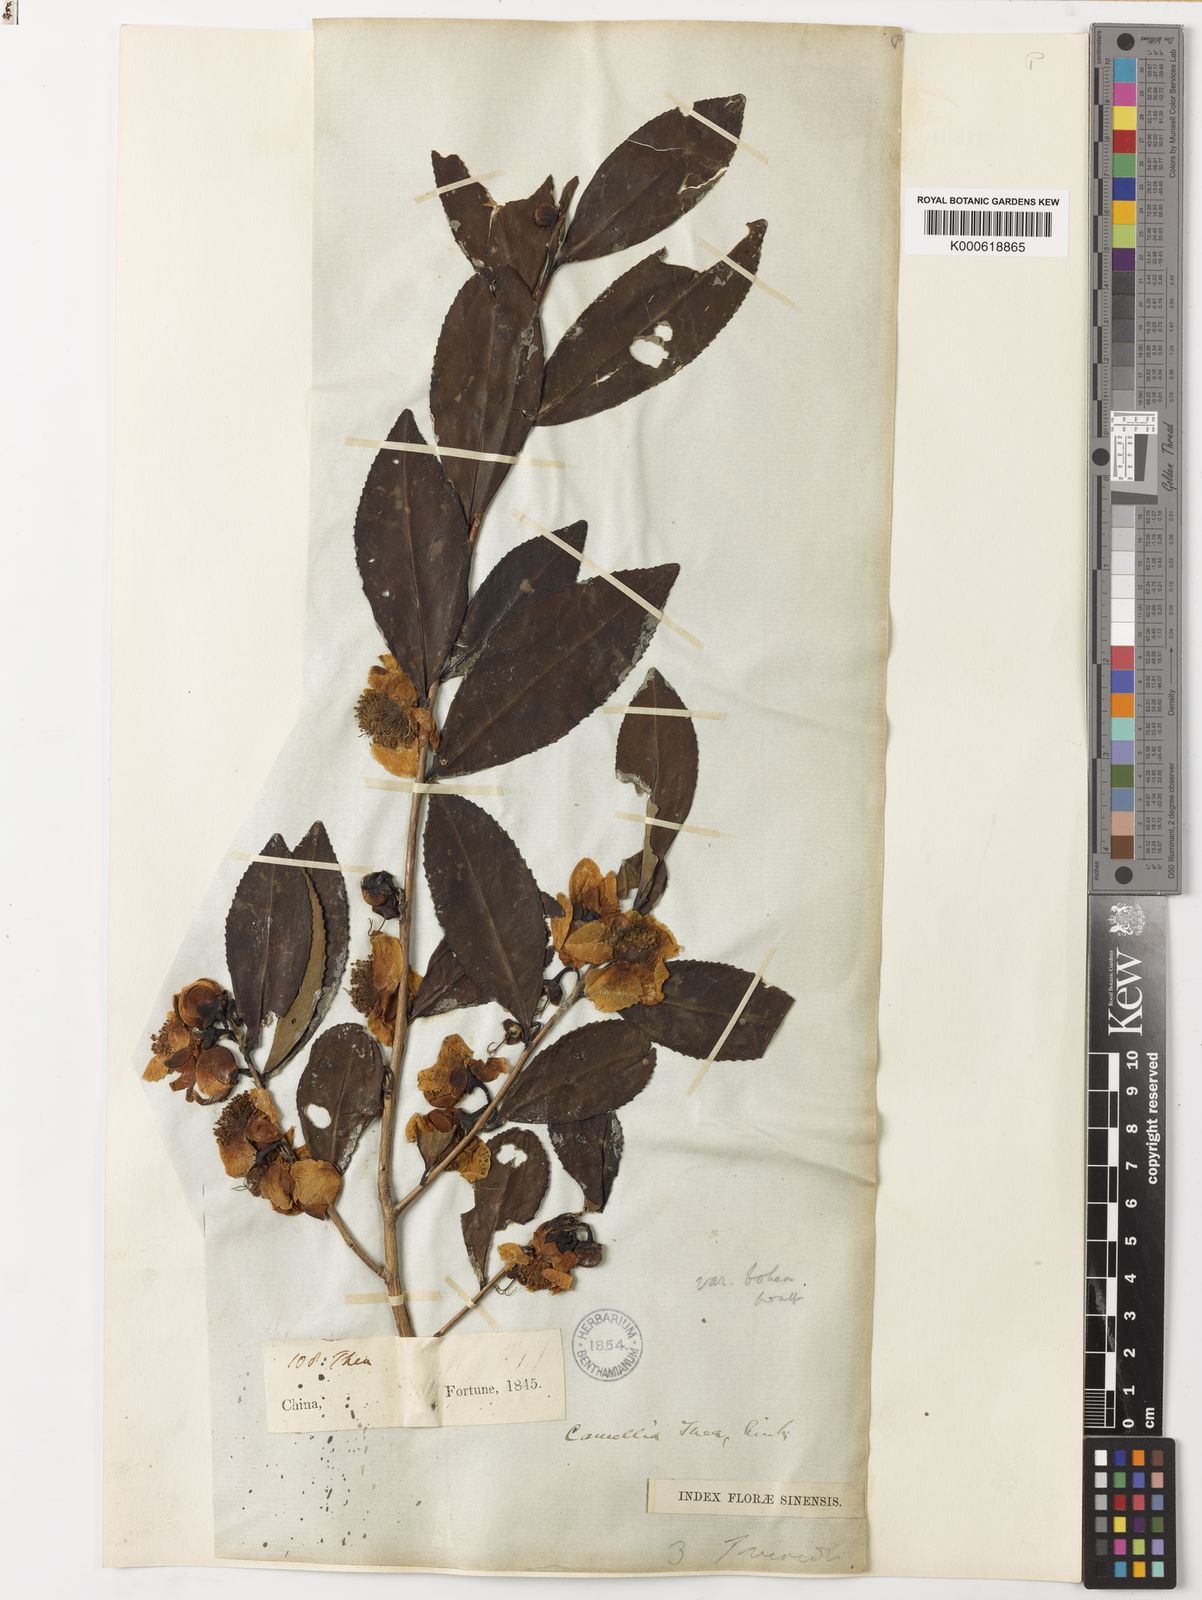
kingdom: Plantae
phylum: Tracheophyta
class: Magnoliopsida
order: Ericales
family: Theaceae
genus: Camellia
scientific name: Camellia
